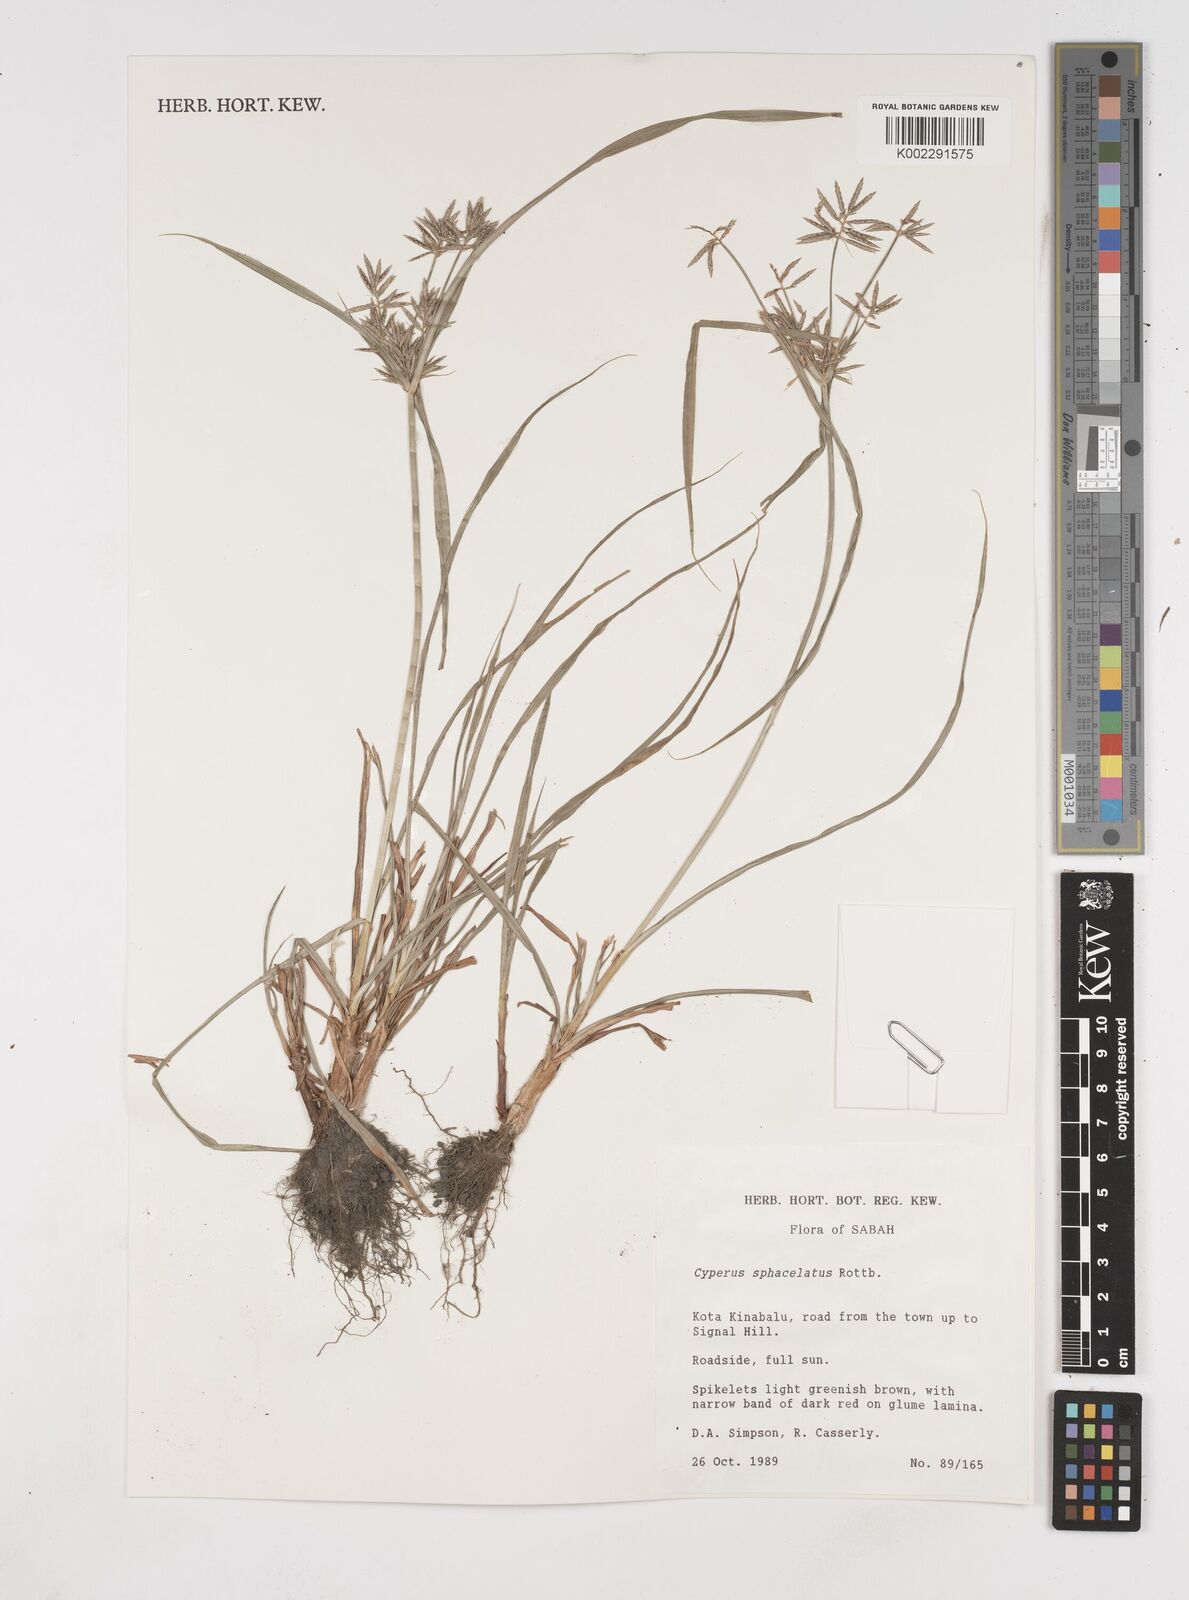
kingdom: Plantae
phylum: Tracheophyta
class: Liliopsida
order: Poales
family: Cyperaceae
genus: Cyperus
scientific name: Cyperus sphacelatus
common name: Roadside flatsedge
